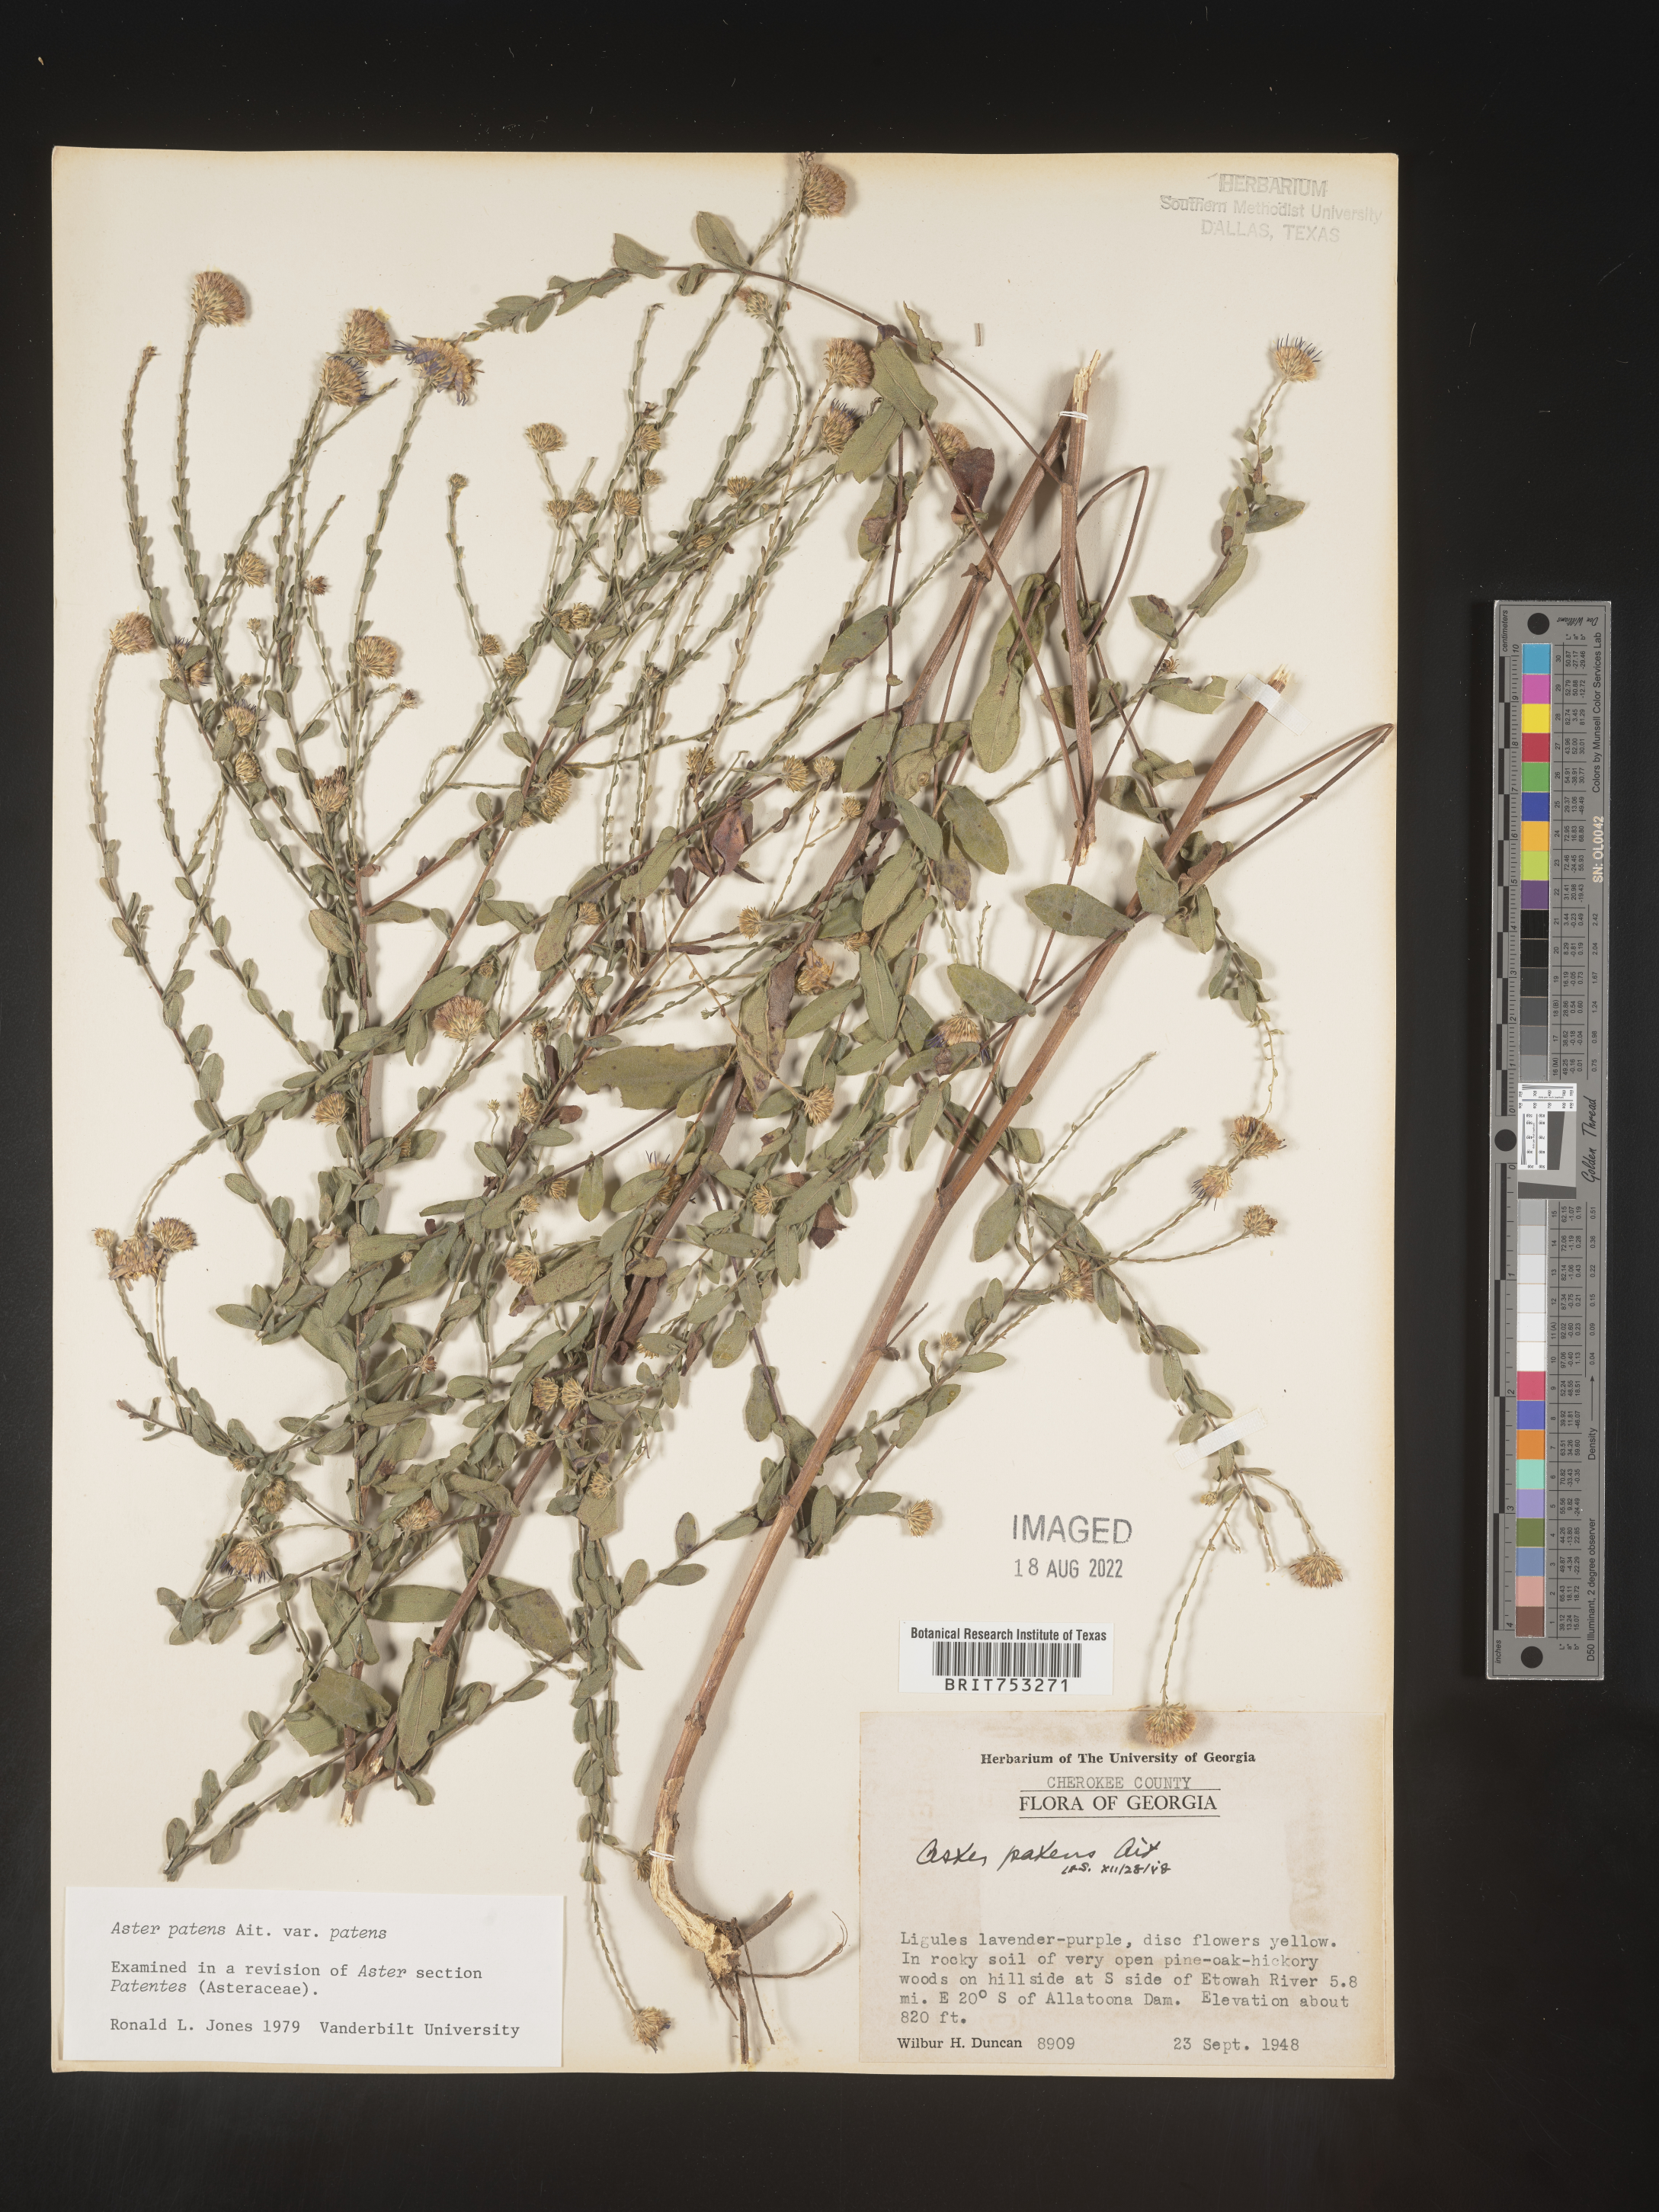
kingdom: Plantae
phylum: Tracheophyta
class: Magnoliopsida
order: Asterales
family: Asteraceae
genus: Symphyotrichum
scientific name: Symphyotrichum patens
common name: Late purple aster
